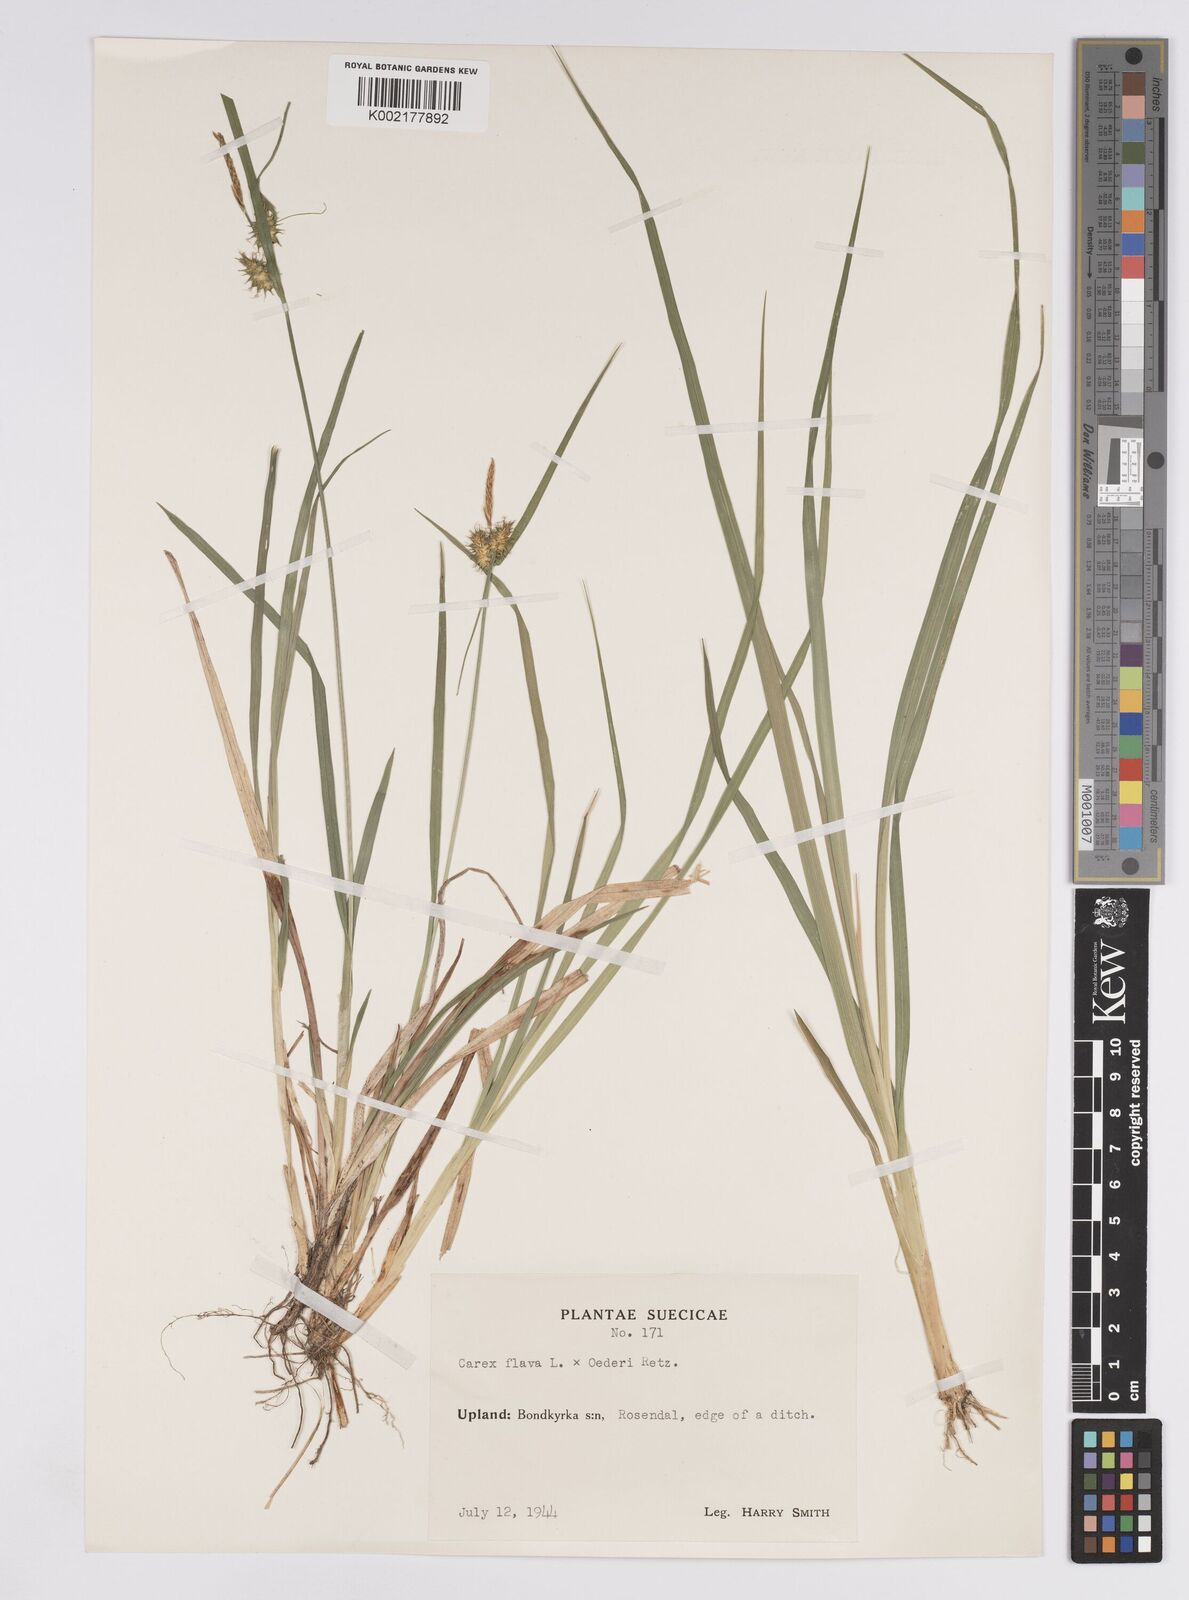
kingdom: Plantae
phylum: Tracheophyta
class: Liliopsida
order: Poales
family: Cyperaceae
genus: Carex
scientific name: Carex flava
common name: Large yellow-sedge
